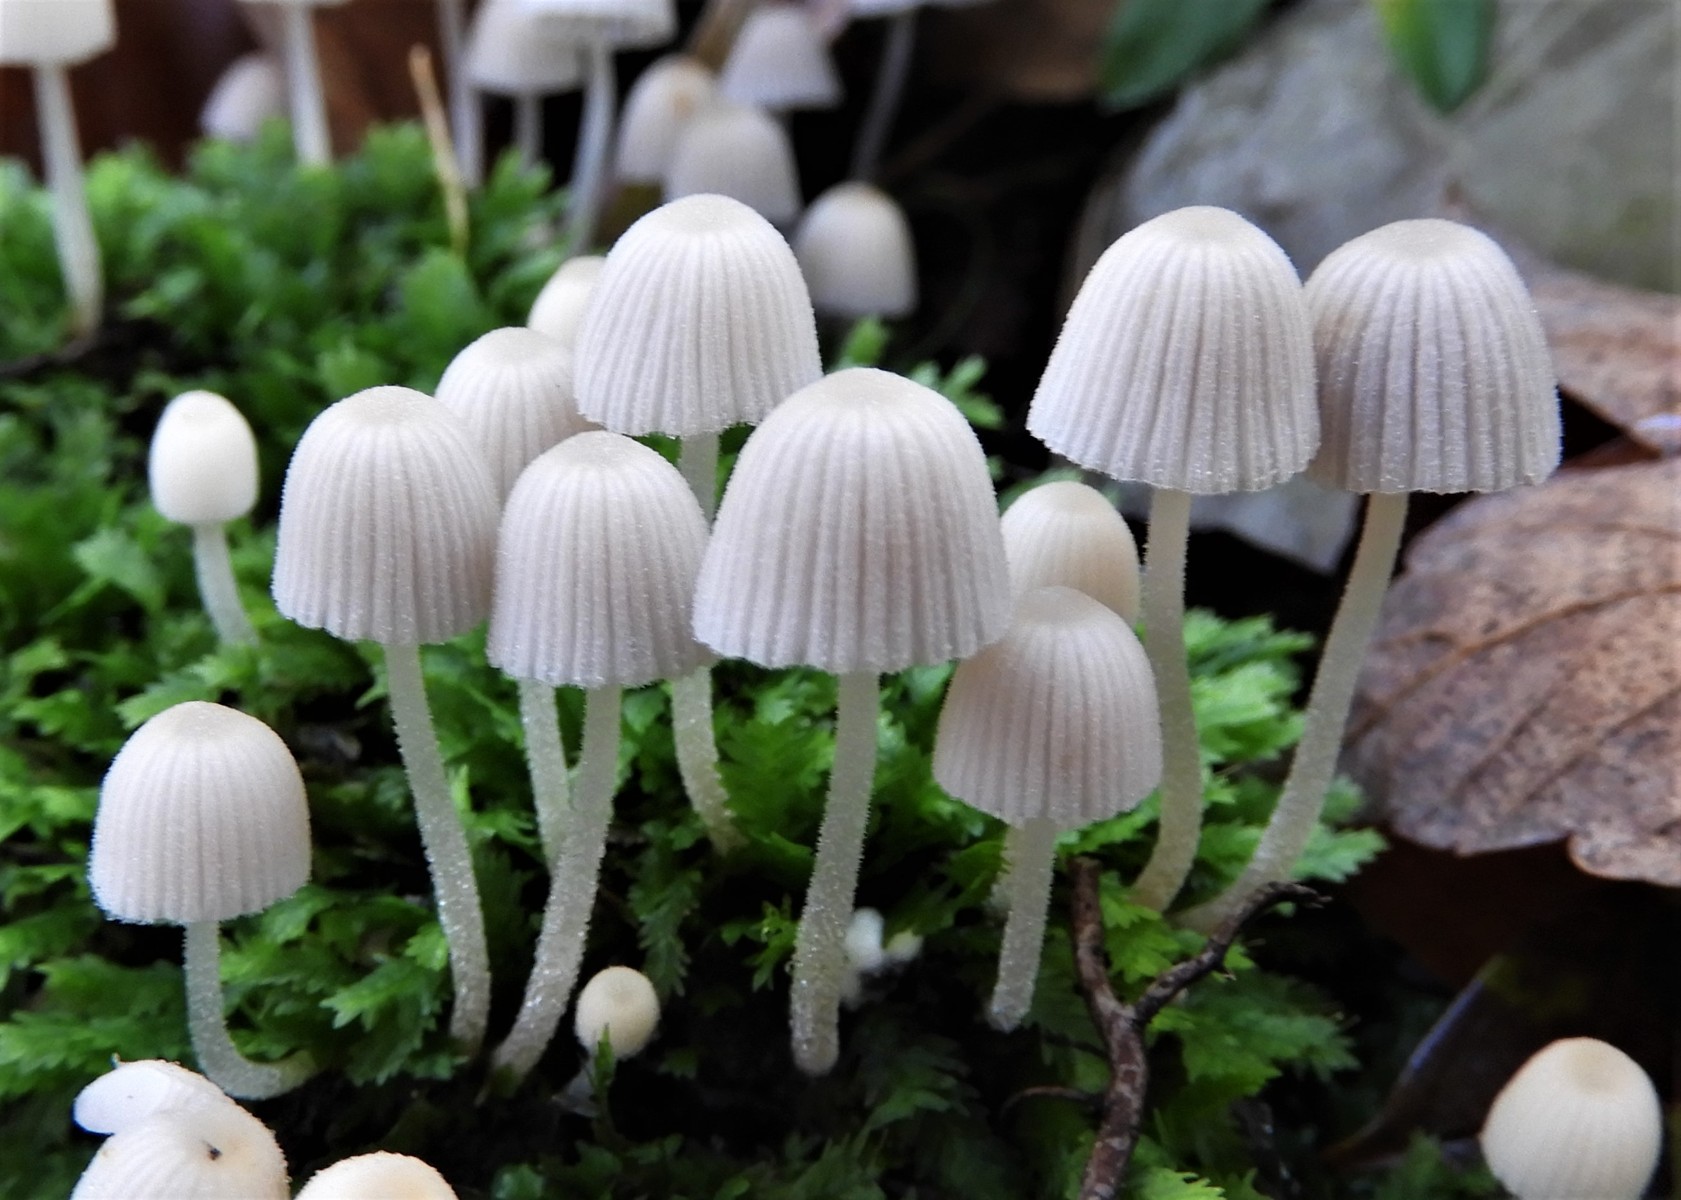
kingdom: Fungi
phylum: Basidiomycota
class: Agaricomycetes
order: Agaricales
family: Psathyrellaceae
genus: Coprinellus
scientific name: Coprinellus disseminatus
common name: bredsået blækhat
